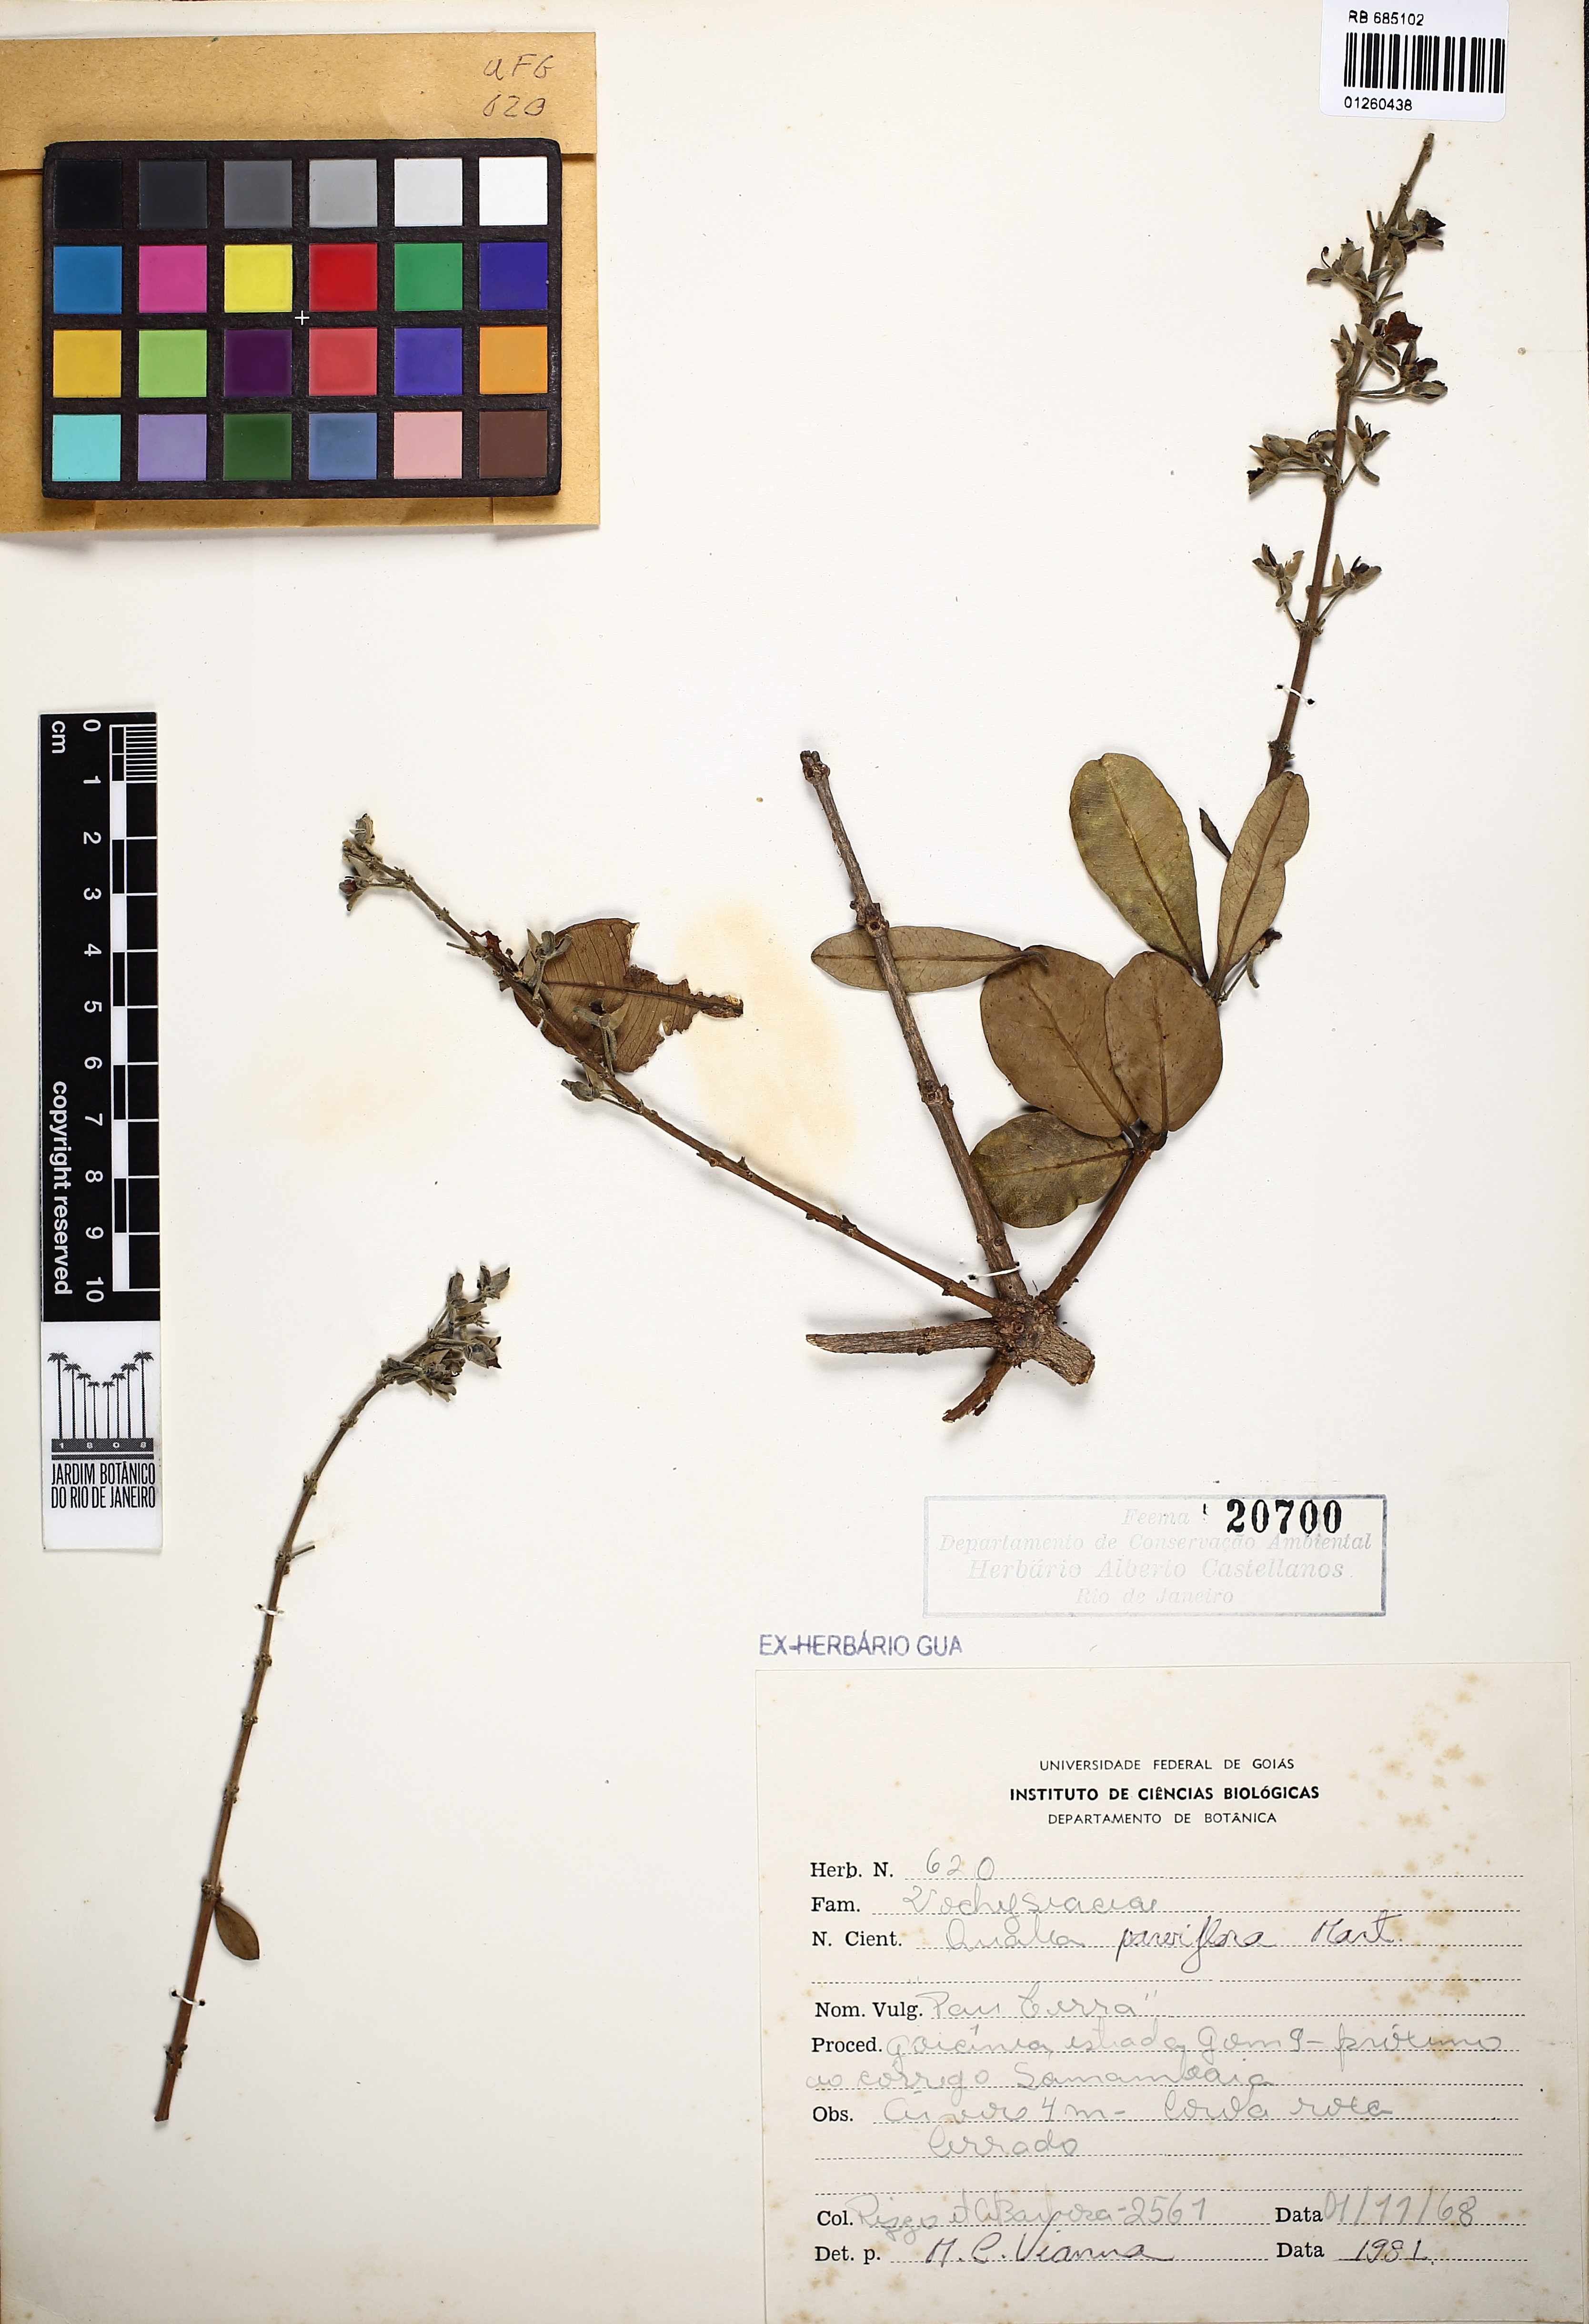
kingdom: Plantae
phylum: Tracheophyta
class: Magnoliopsida
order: Myrtales
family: Vochysiaceae
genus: Qualea
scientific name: Qualea parviflora
